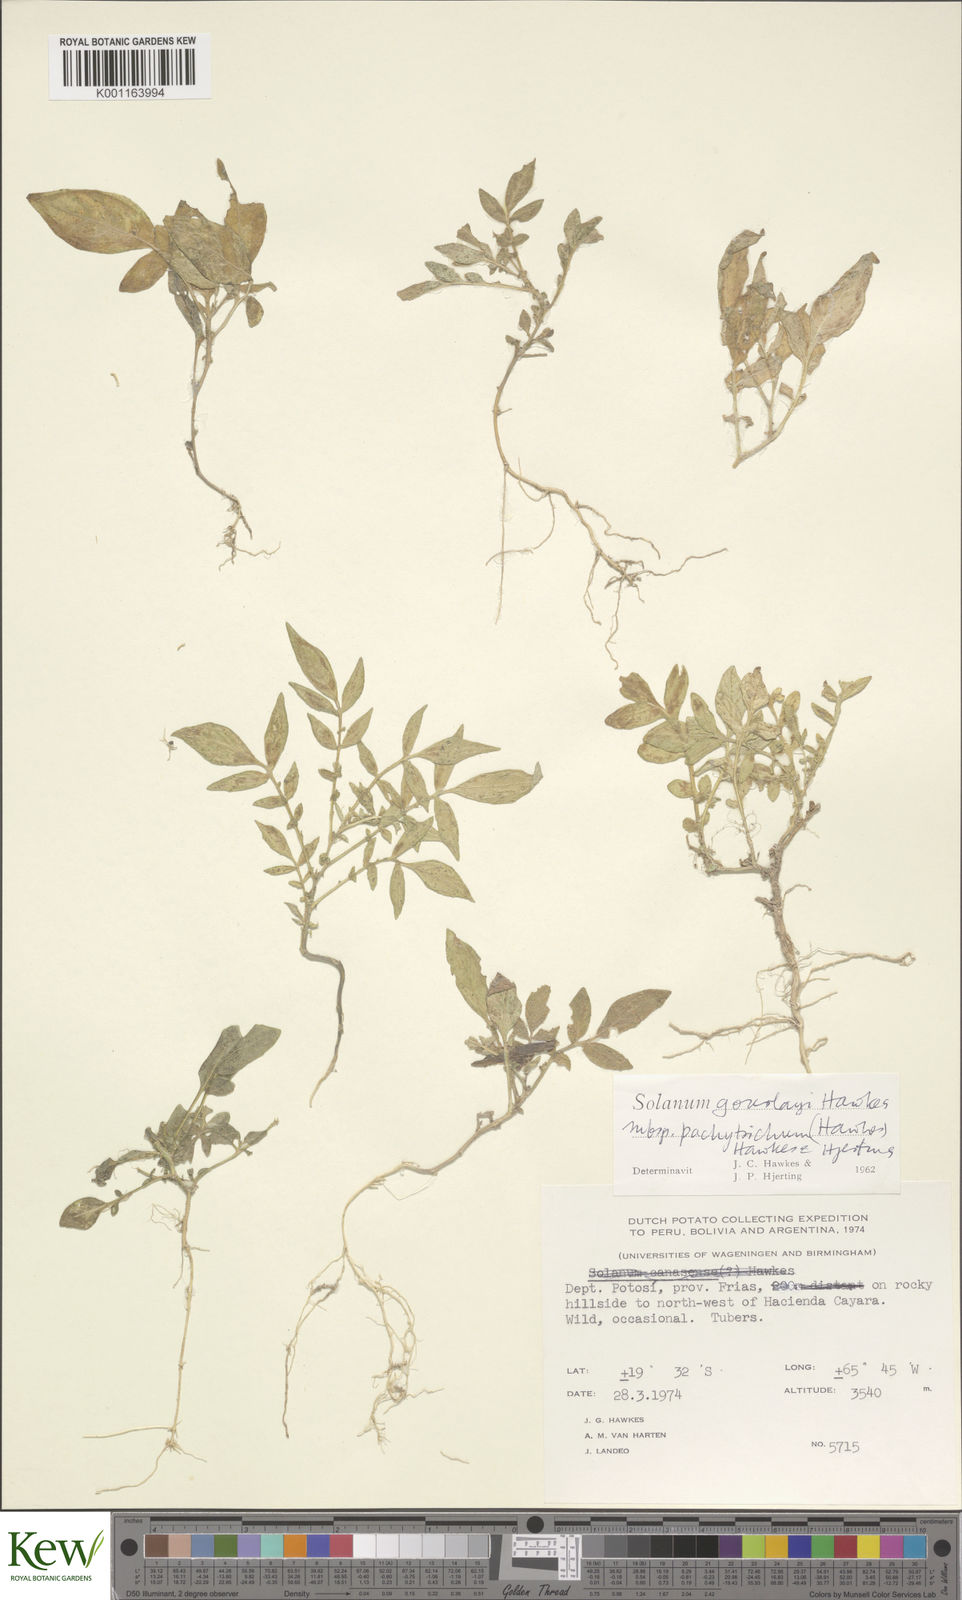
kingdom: Plantae
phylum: Tracheophyta
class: Magnoliopsida
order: Solanales
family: Solanaceae
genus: Solanum
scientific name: Solanum brevicaule
